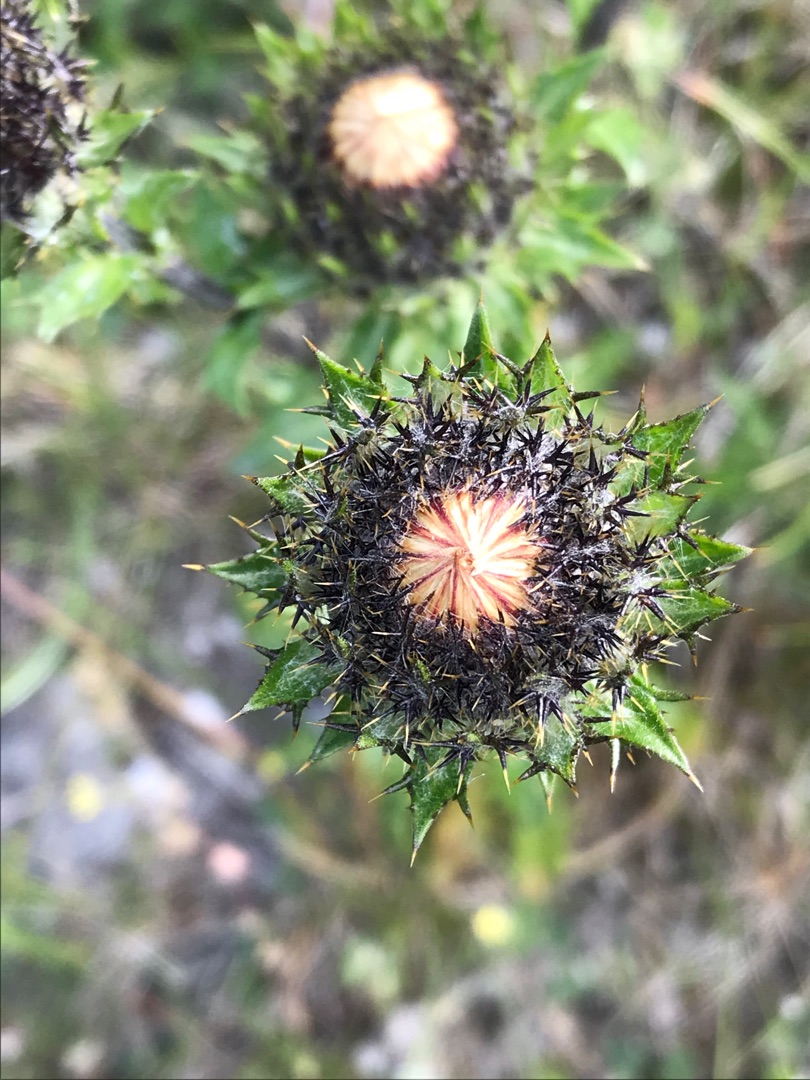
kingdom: Plantae
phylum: Tracheophyta
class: Magnoliopsida
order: Asterales
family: Asteraceae
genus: Carlina
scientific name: Carlina vulgaris
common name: Bakketidsel
